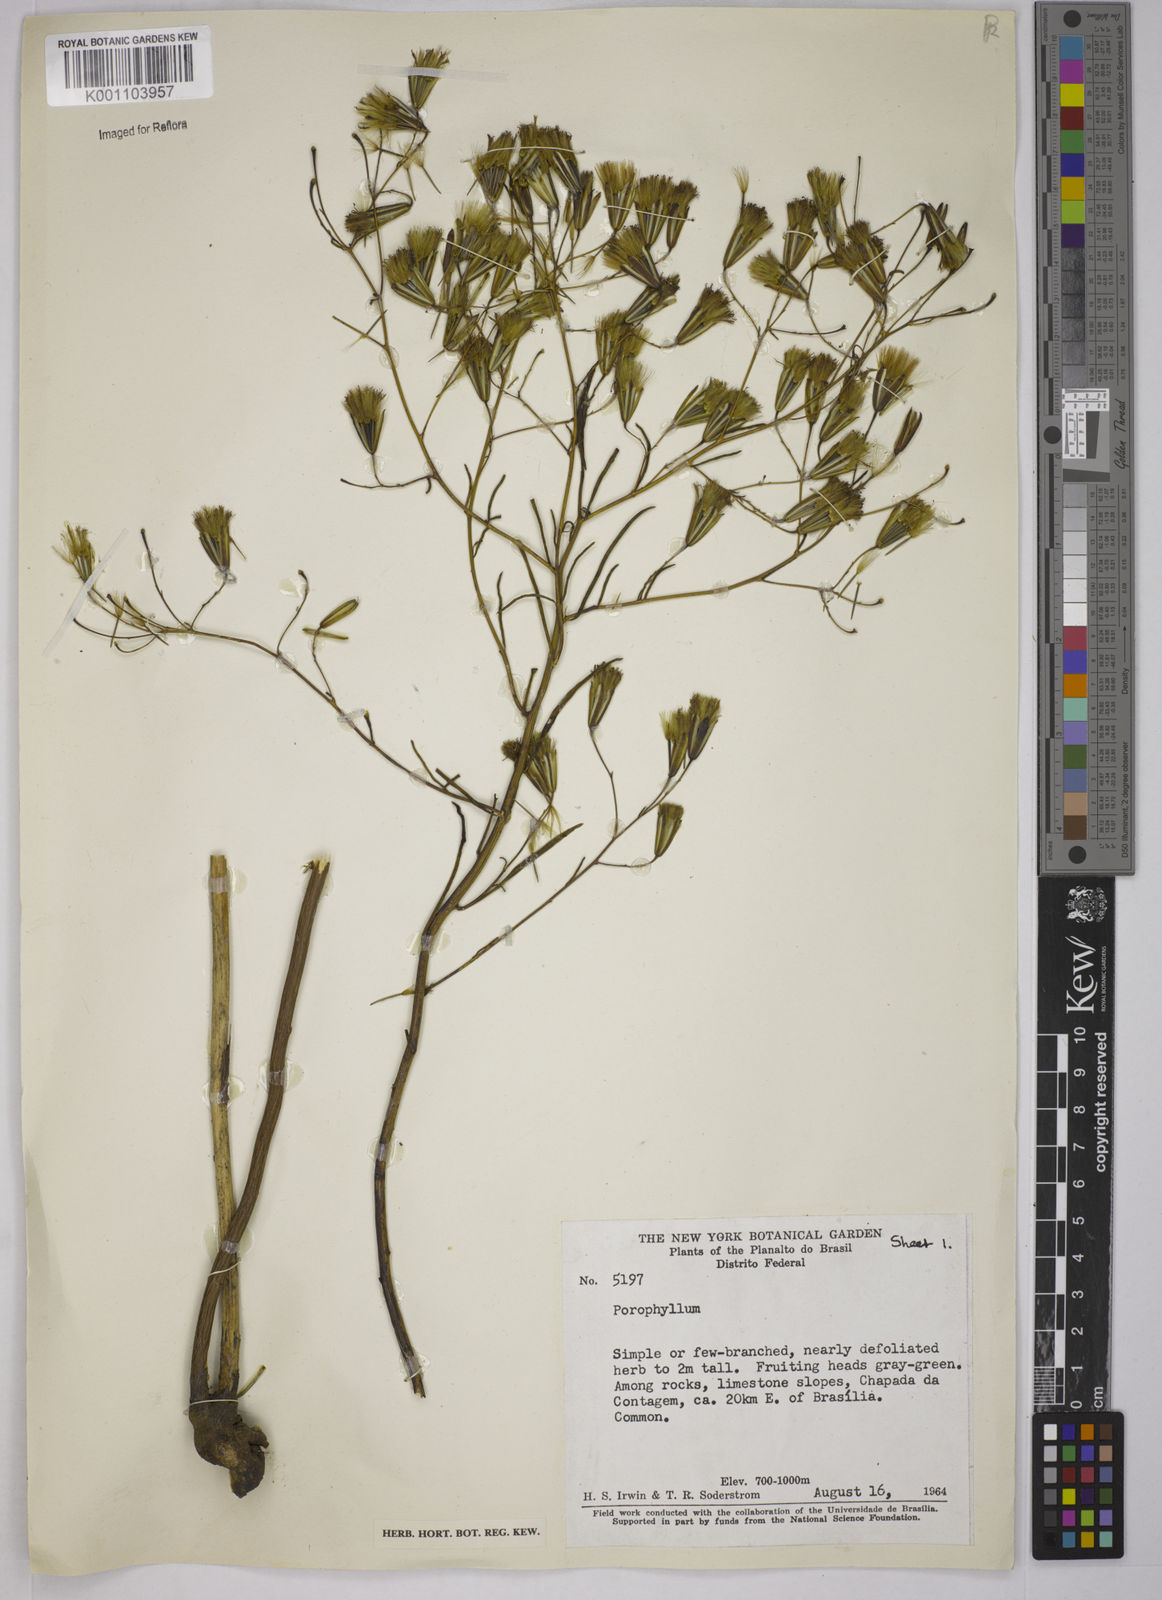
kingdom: Plantae
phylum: Tracheophyta
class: Magnoliopsida
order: Asterales
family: Asteraceae
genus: Porophyllum
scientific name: Porophyllum
